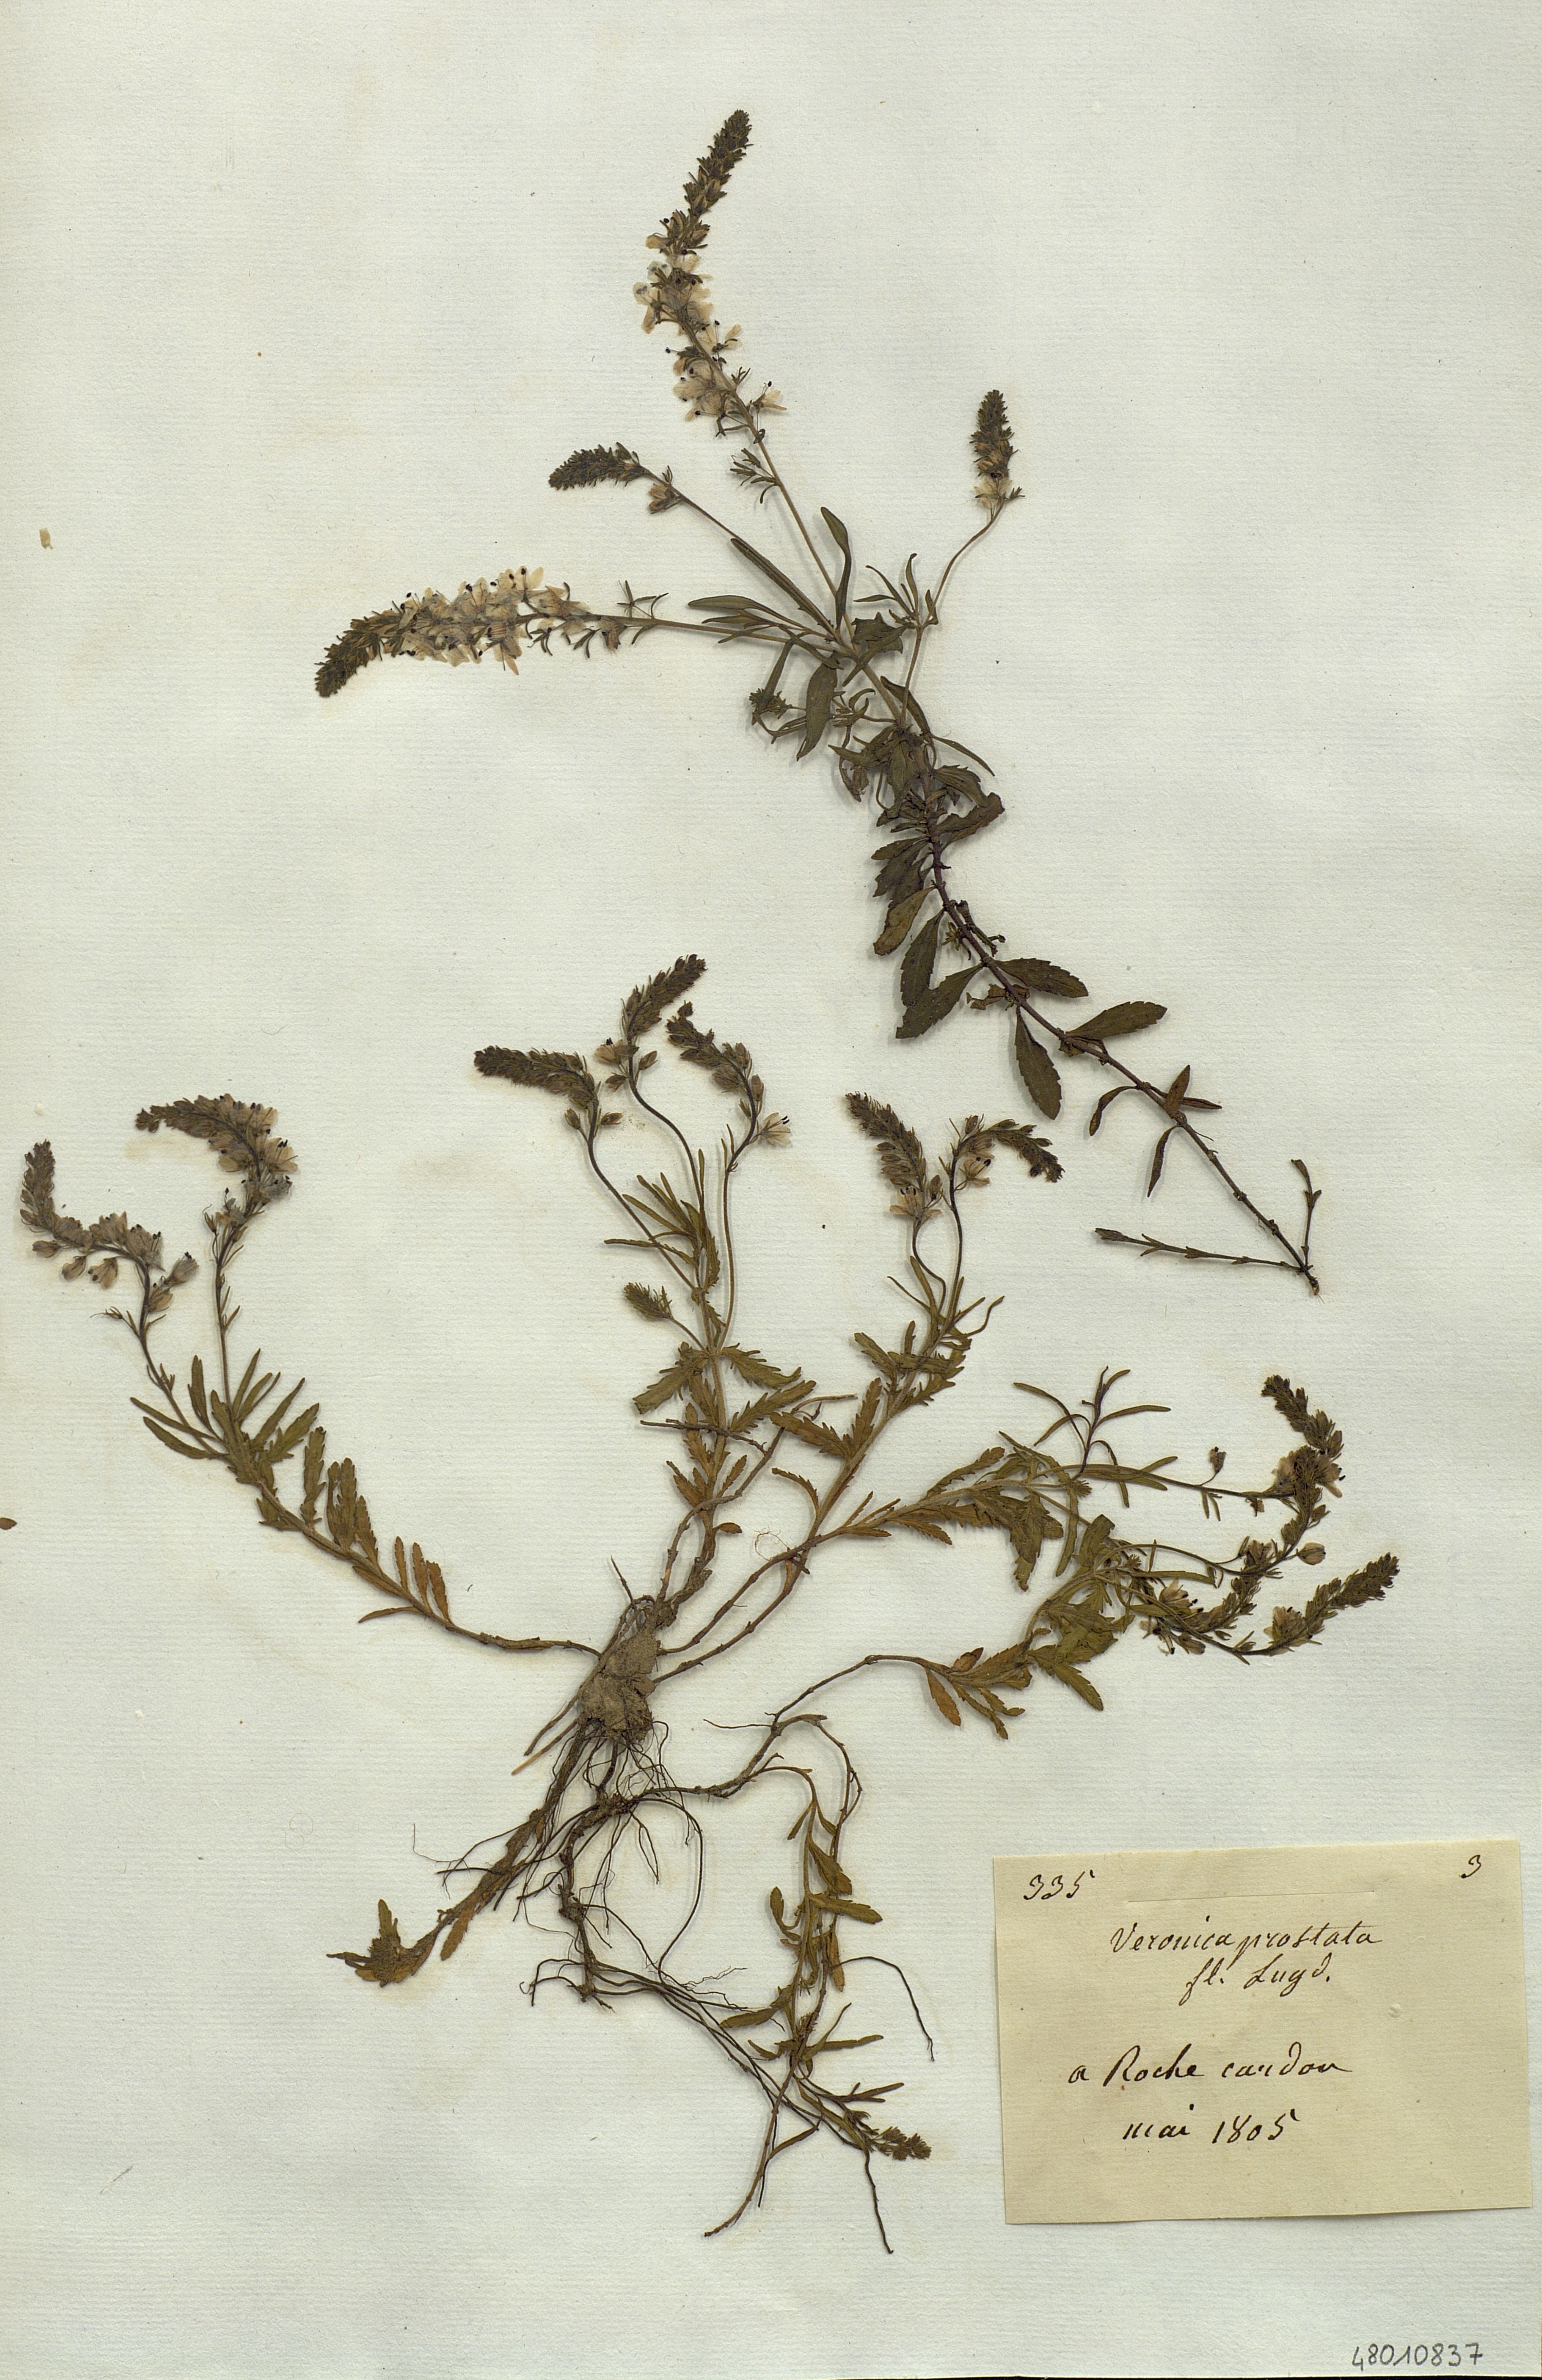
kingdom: Plantae
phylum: Tracheophyta
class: Magnoliopsida
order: Lamiales
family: Plantaginaceae
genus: Veronica
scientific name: Veronica teucrium
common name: Large speedwell
